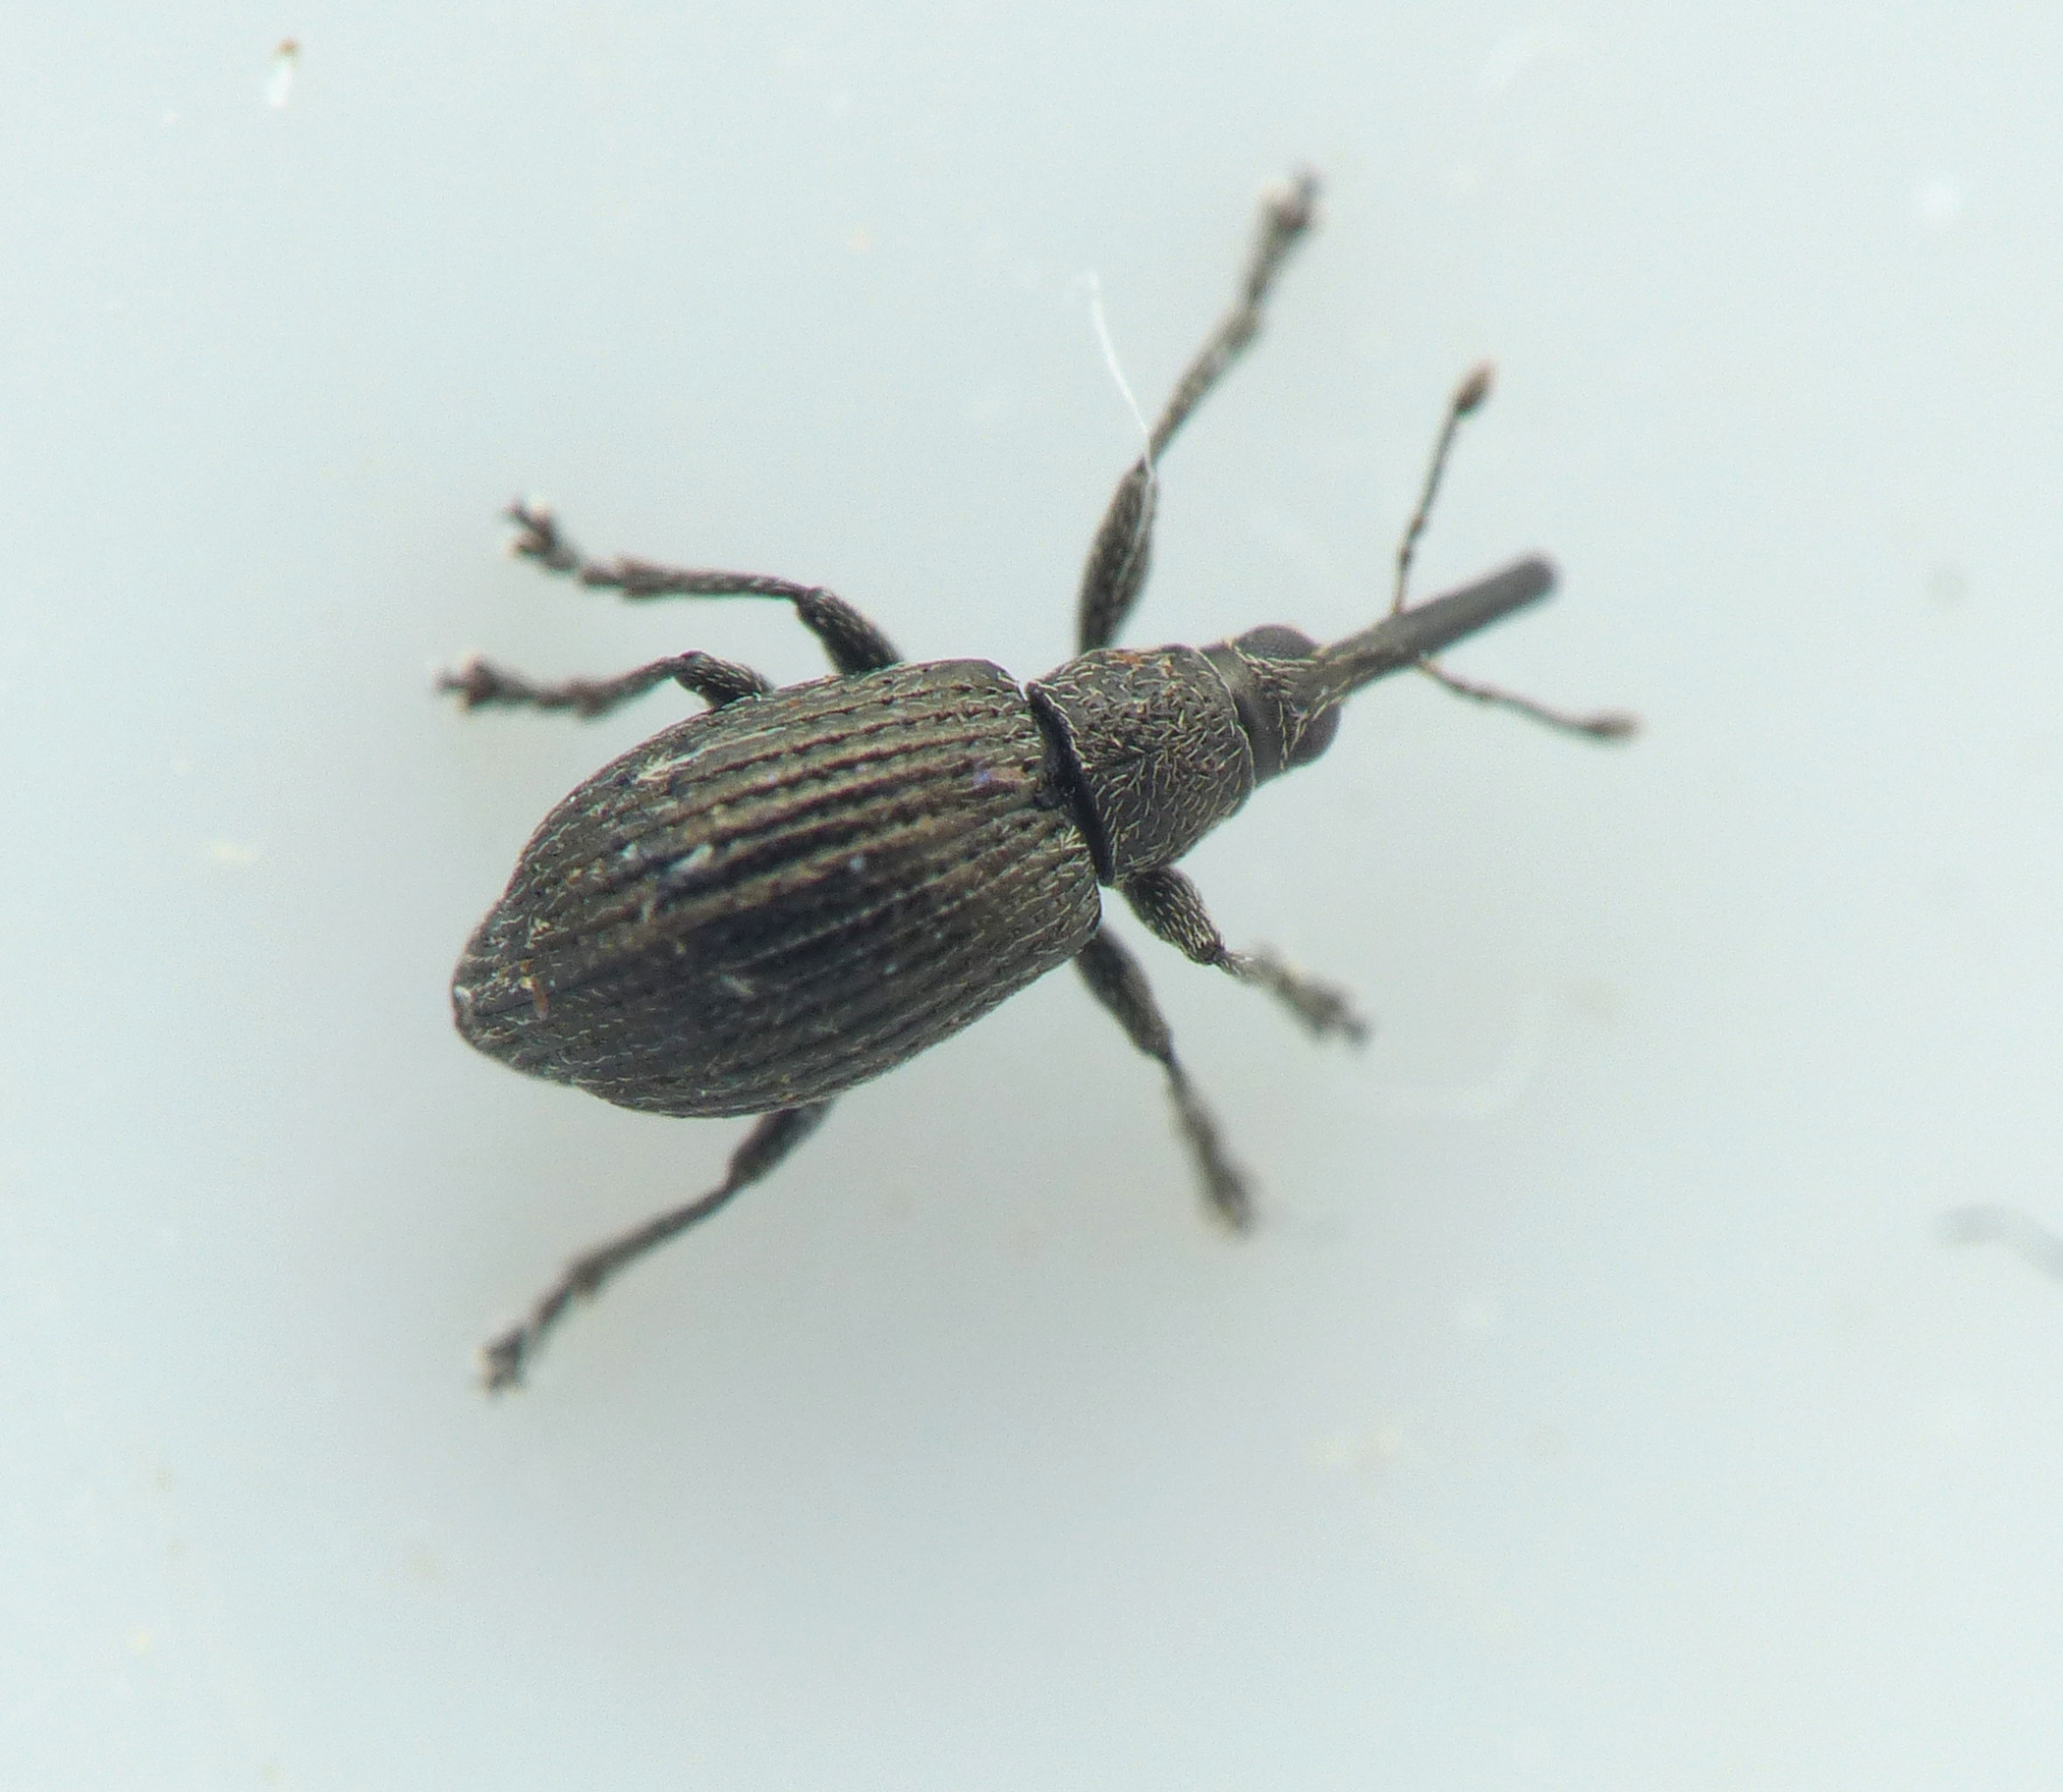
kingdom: Animalia
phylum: Arthropoda
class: Insecta
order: Coleoptera
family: Brentidae
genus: Betulapion
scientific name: Betulapion simile
